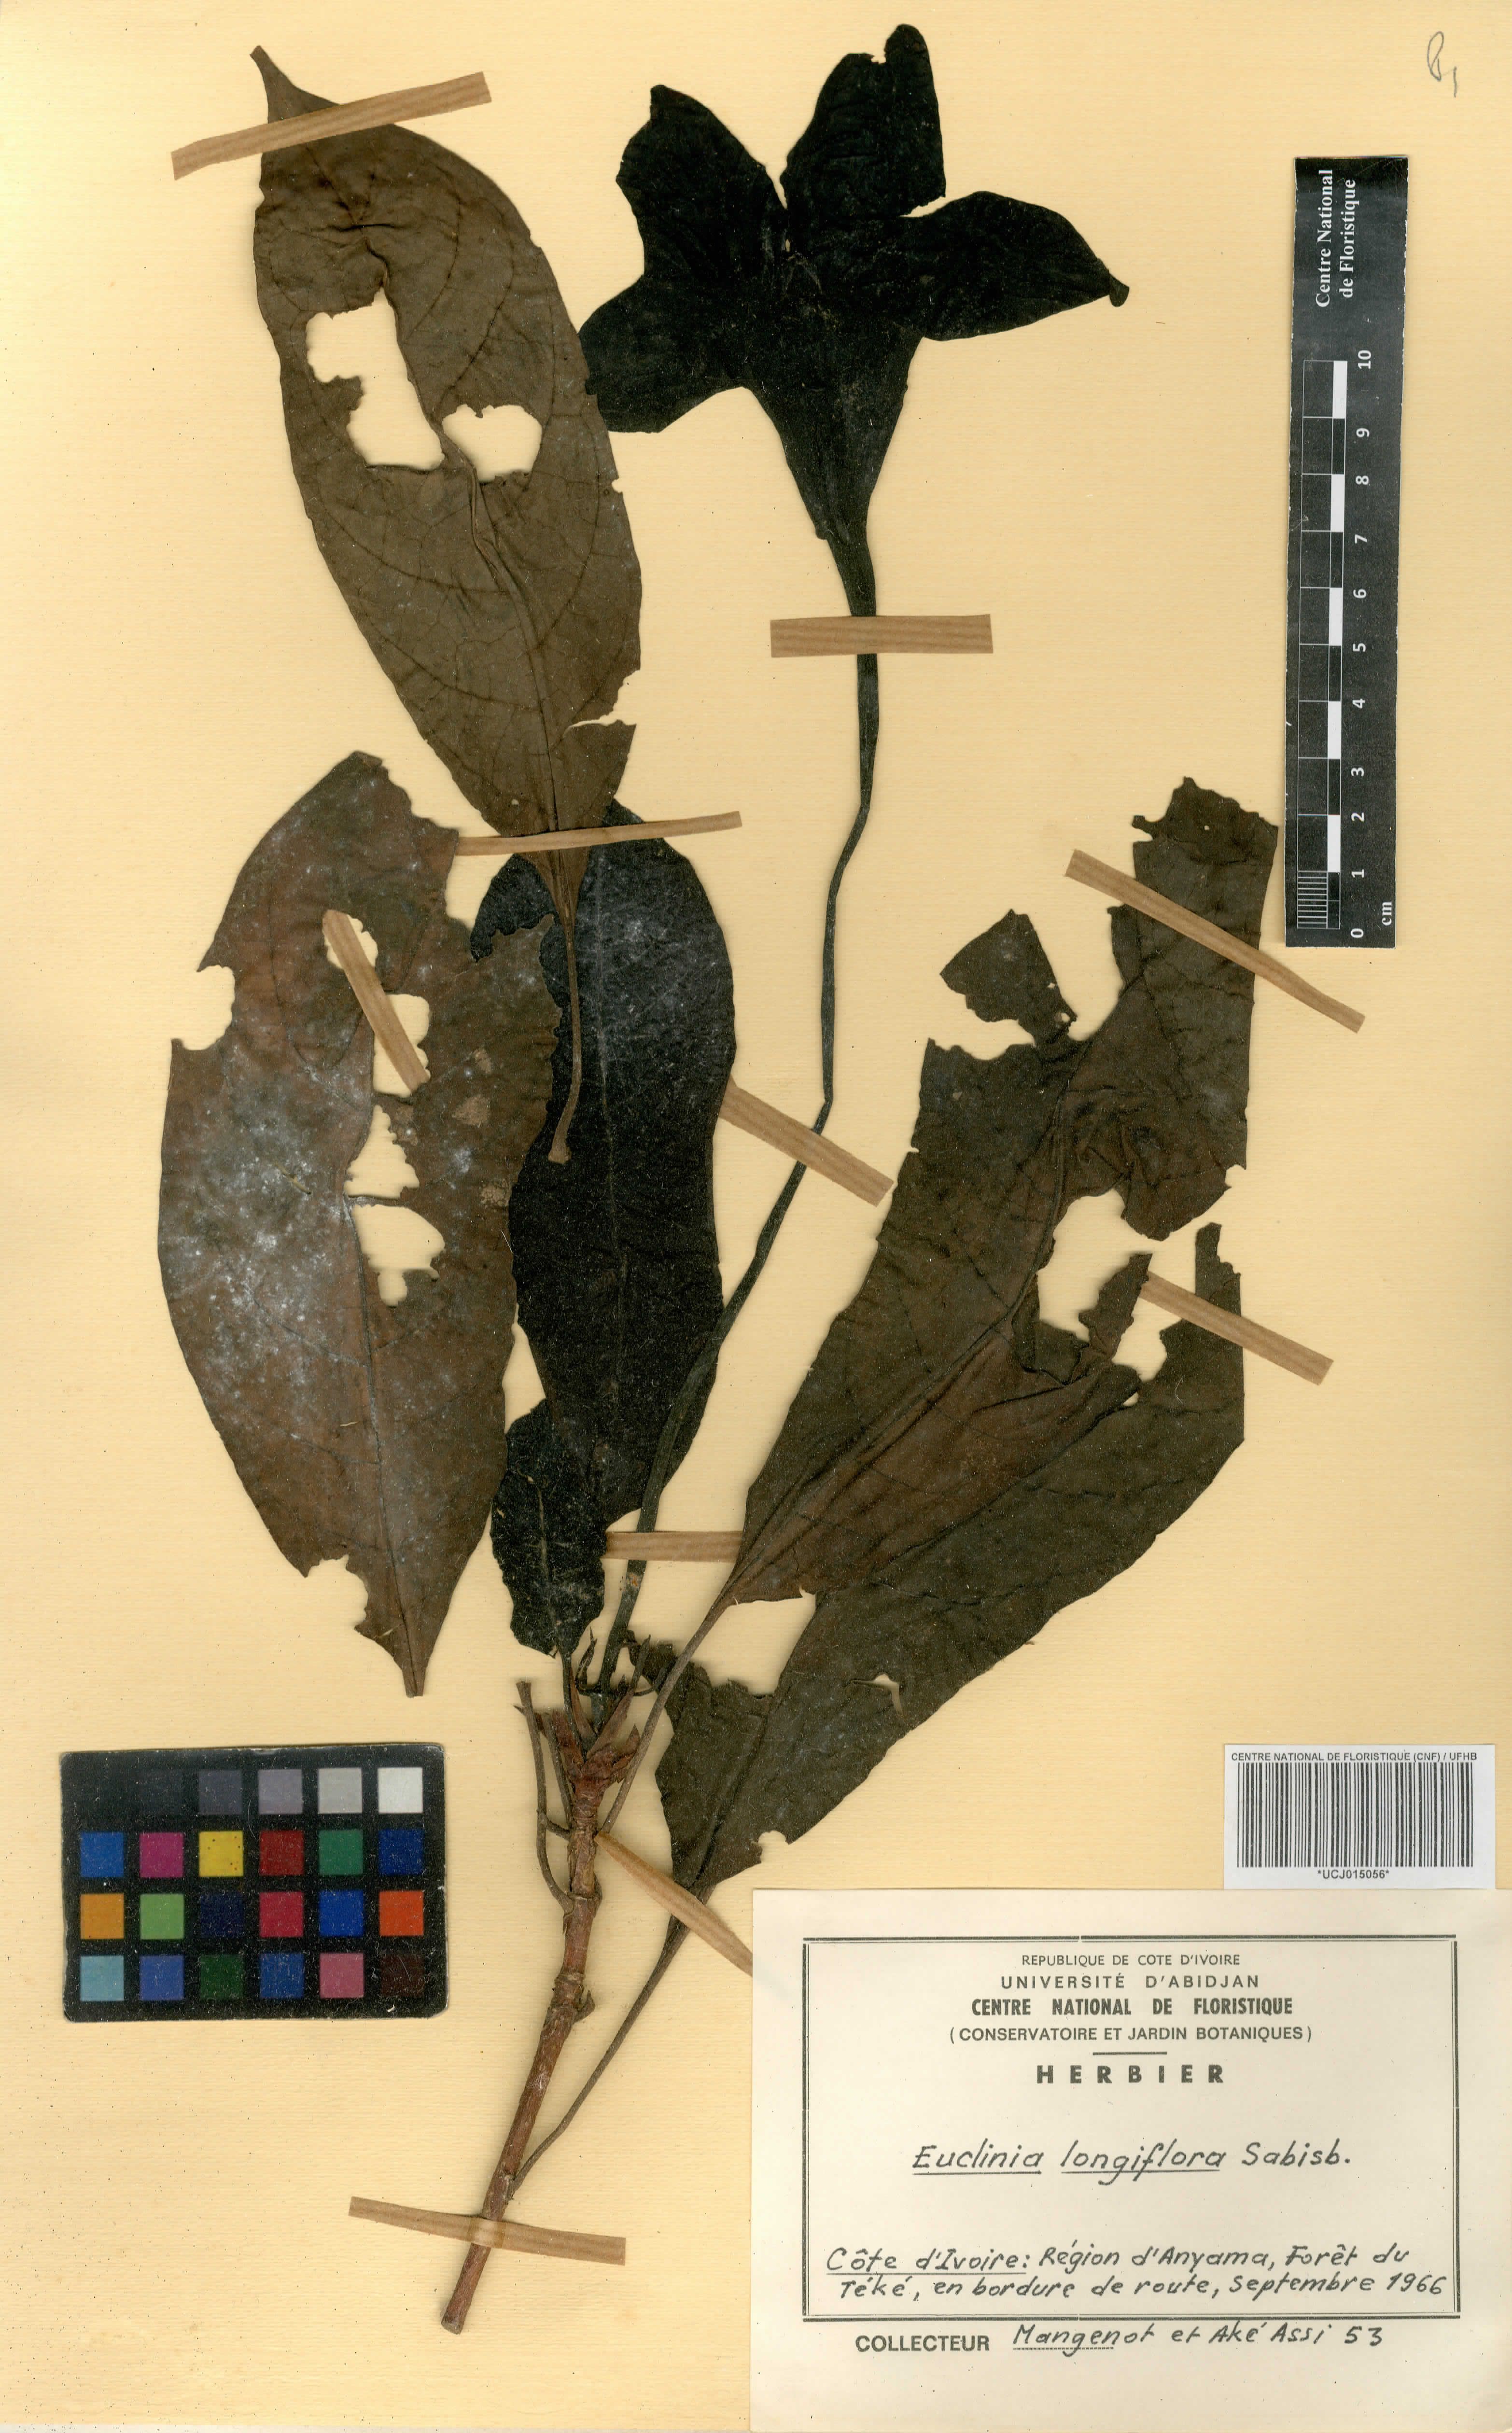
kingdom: Plantae
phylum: Tracheophyta
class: Magnoliopsida
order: Gentianales
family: Rubiaceae
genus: Euclinia
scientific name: Euclinia longiflora
